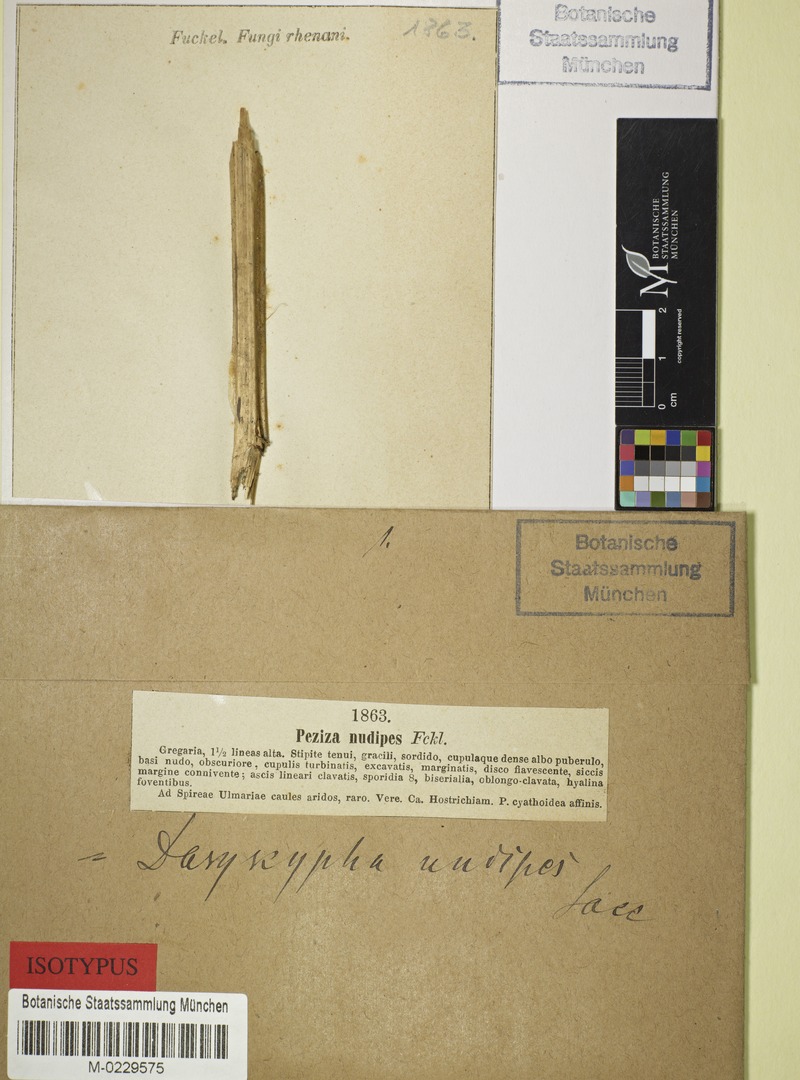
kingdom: Fungi
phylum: Ascomycota
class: Leotiomycetes
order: Helotiales
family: Lachnaceae
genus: Lachnum
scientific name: Lachnum nudipes
